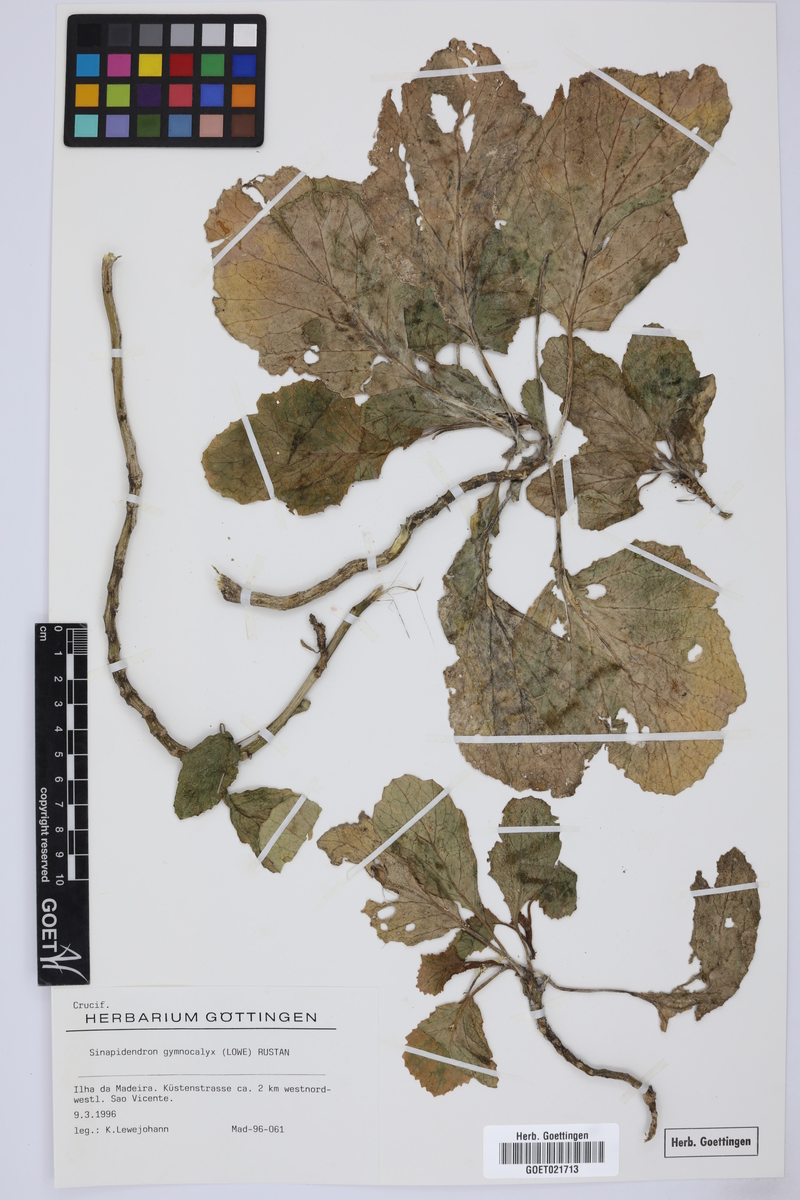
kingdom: Plantae
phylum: Tracheophyta
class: Magnoliopsida
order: Brassicales
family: Brassicaceae
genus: Sinapidendron
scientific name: Sinapidendron rupestre
